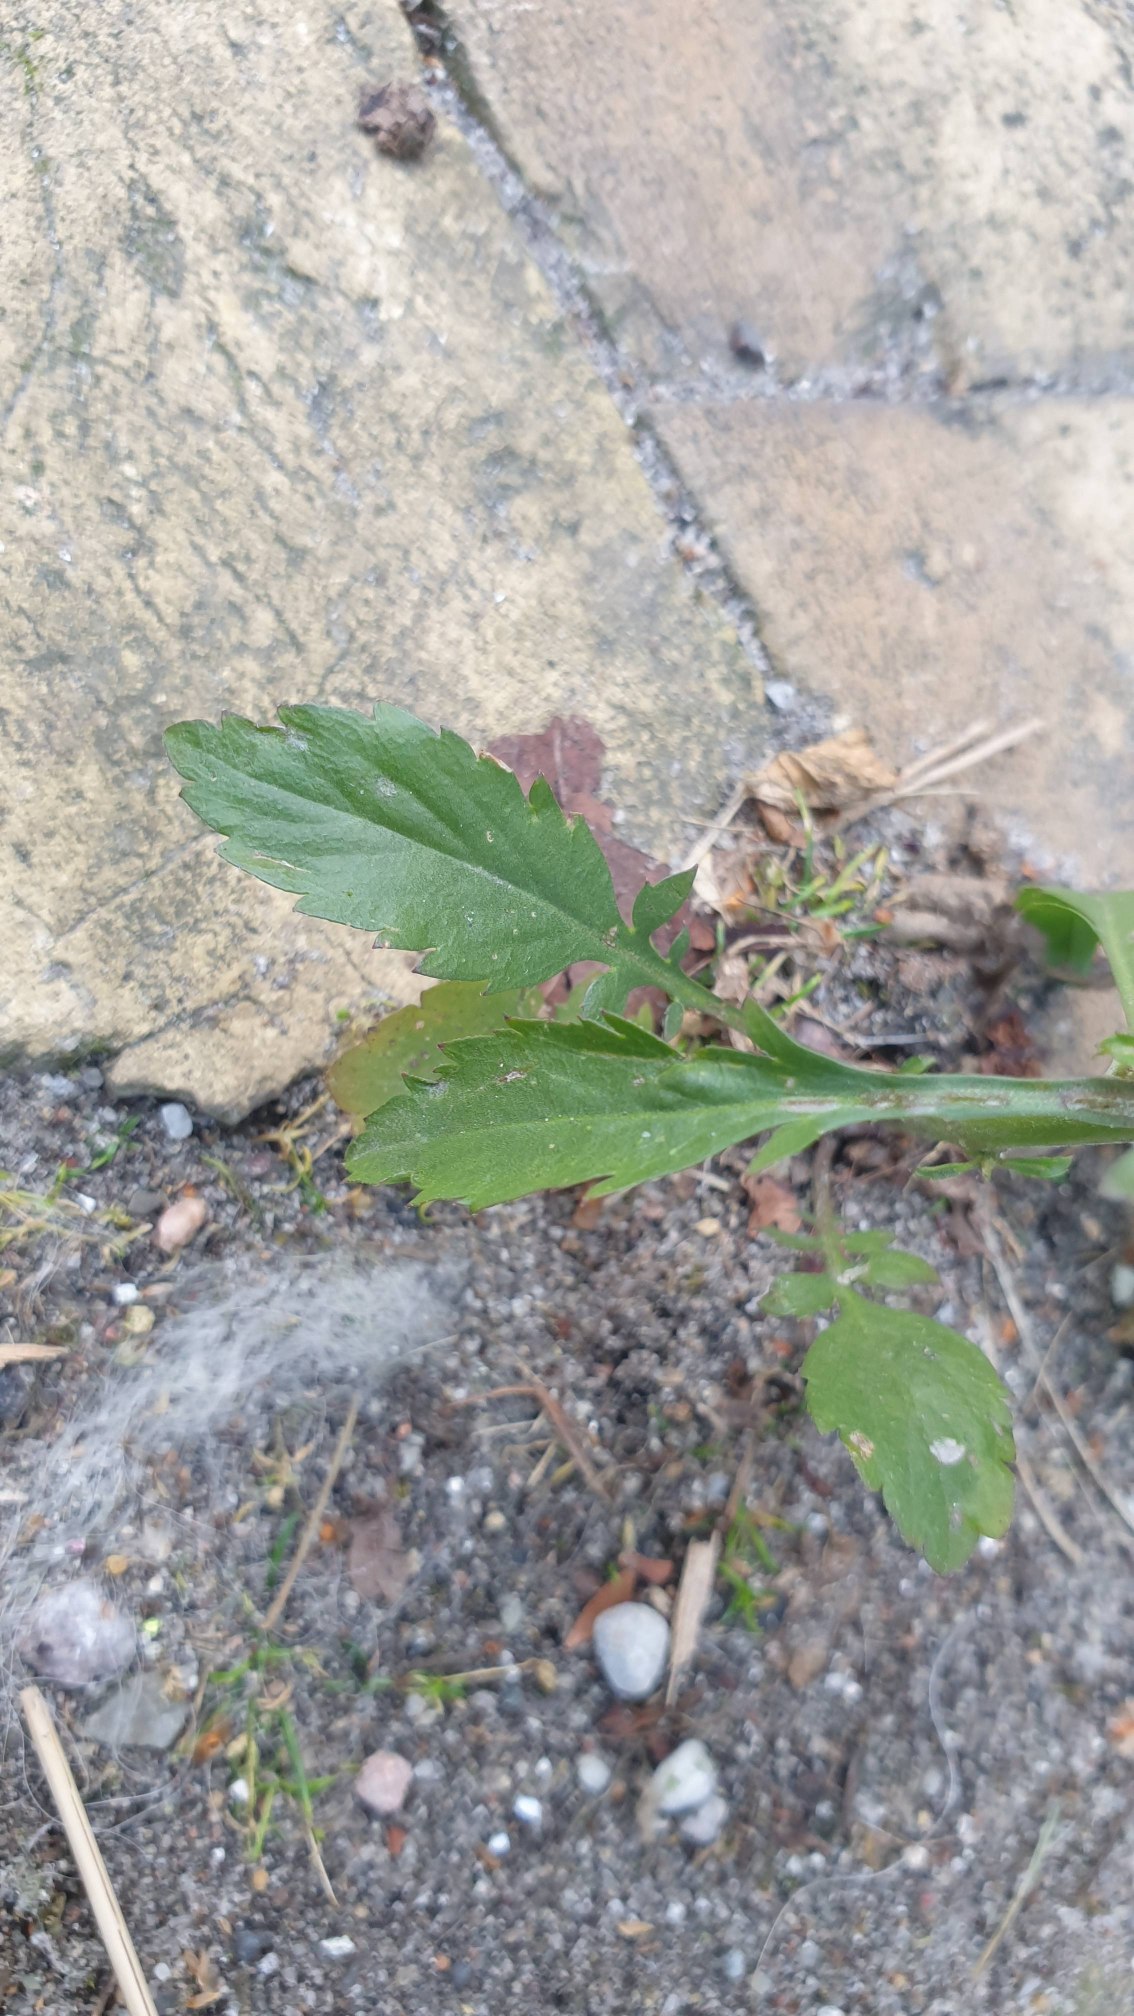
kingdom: Plantae
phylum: Tracheophyta
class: Magnoliopsida
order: Brassicales
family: Brassicaceae
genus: Lepidium
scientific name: Lepidium virginicum
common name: Virginsk karse
